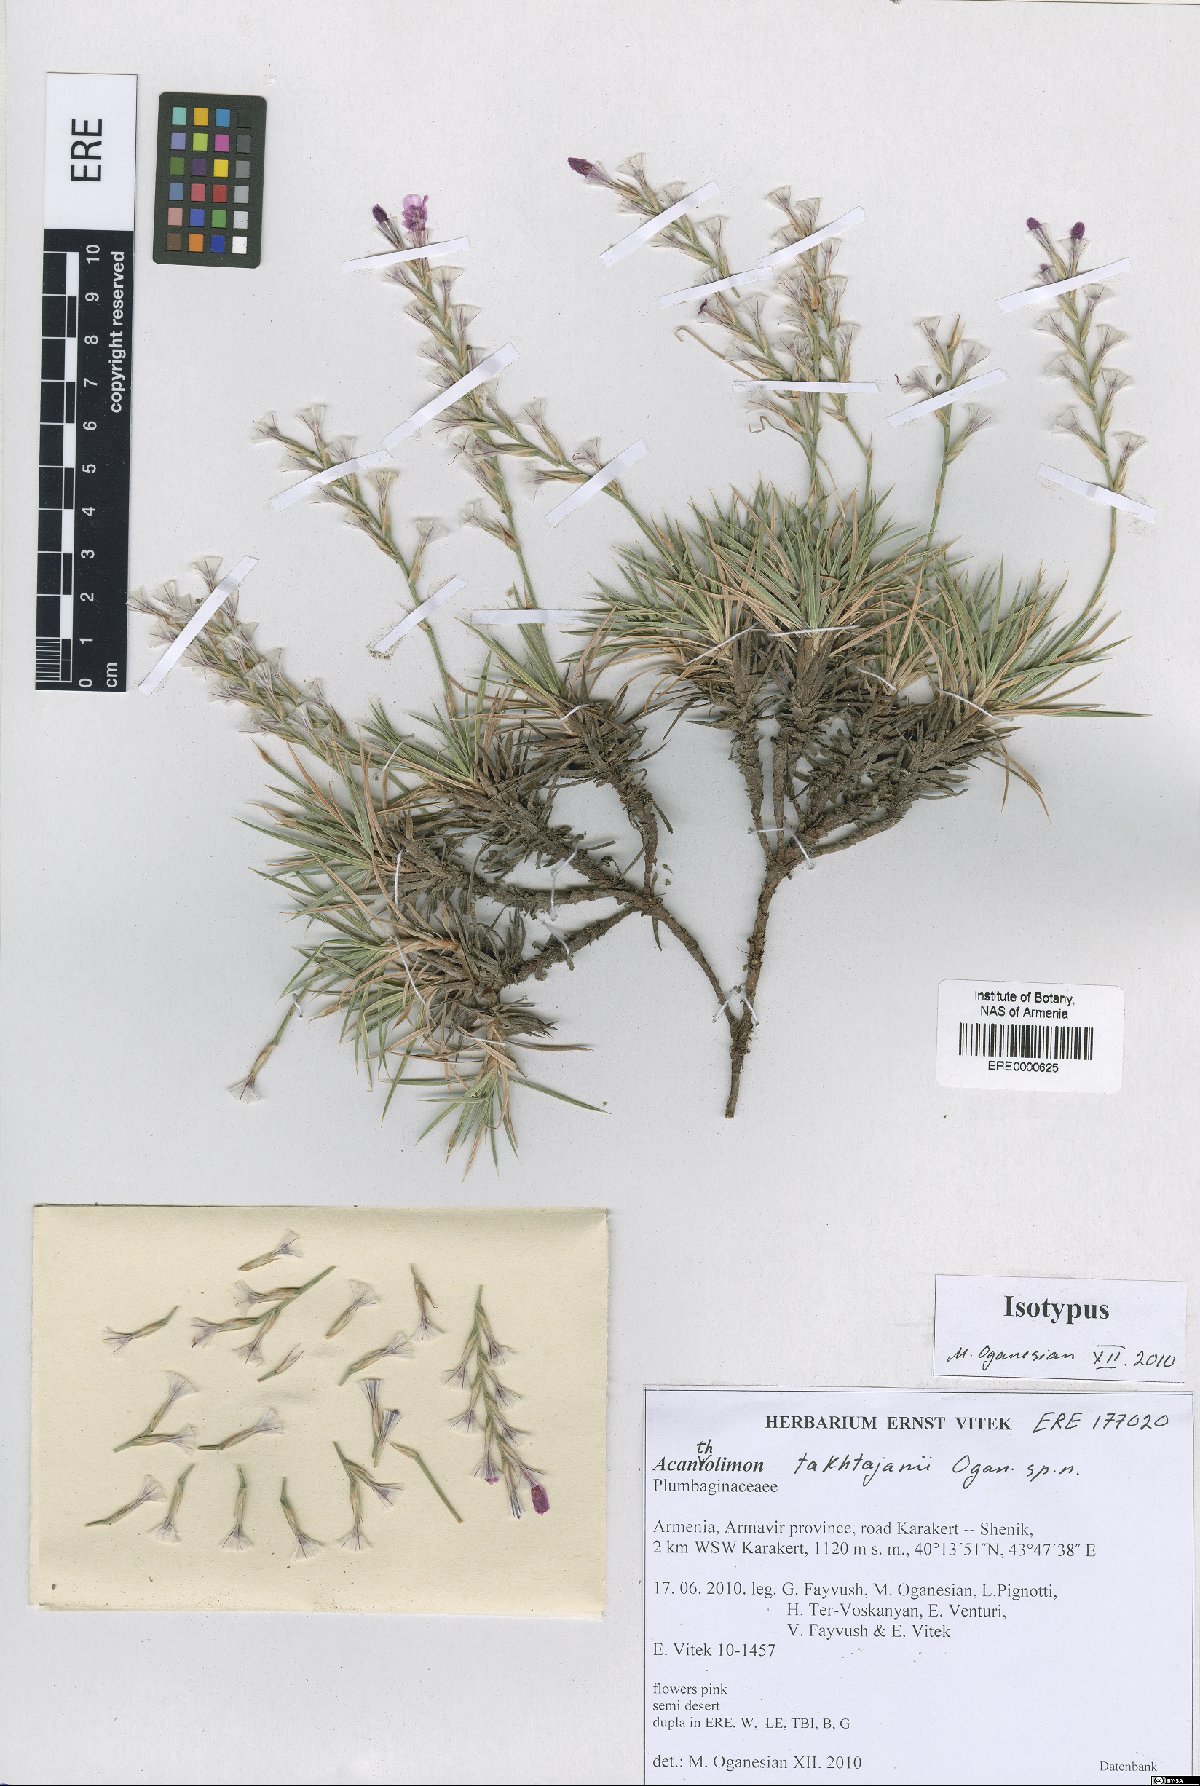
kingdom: Plantae
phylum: Tracheophyta
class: Magnoliopsida
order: Caryophyllales
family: Plumbaginaceae
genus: Acantholimon
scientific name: Acantholimon takhtajanii
